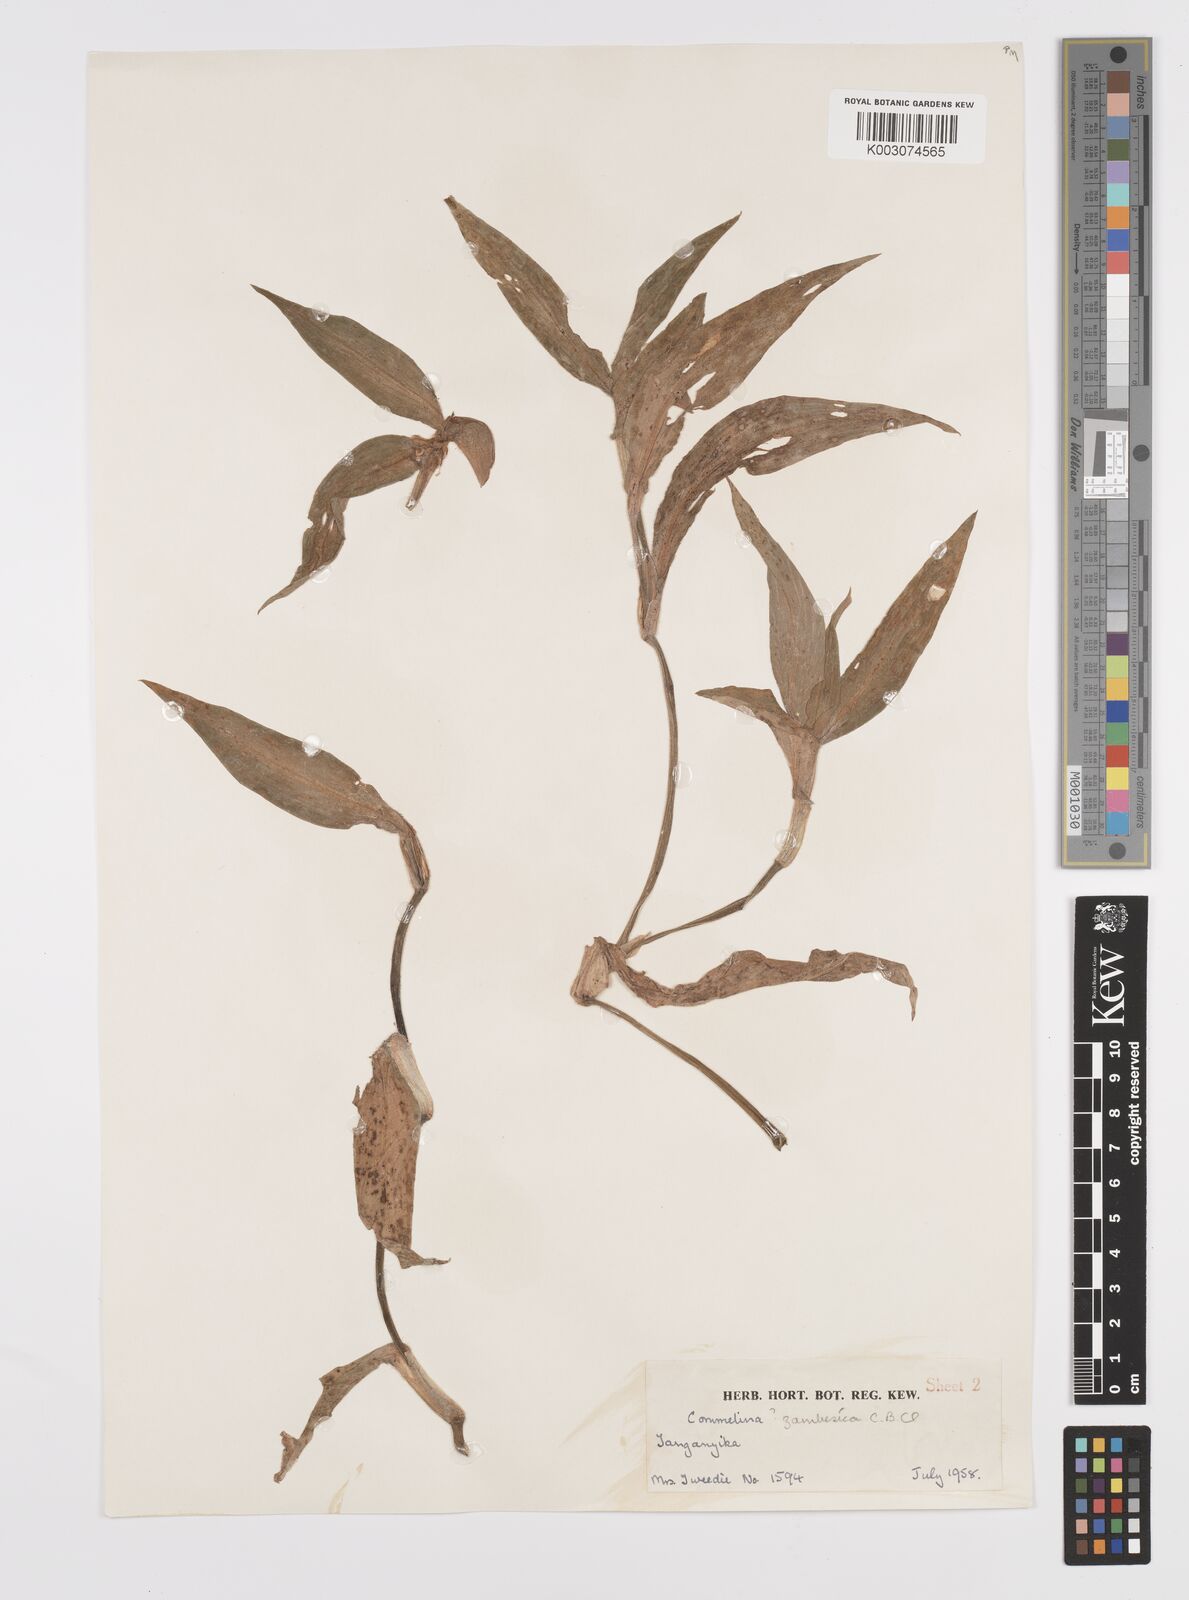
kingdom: Plantae
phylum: Tracheophyta
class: Liliopsida
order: Commelinales
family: Commelinaceae
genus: Commelina
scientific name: Commelina zambesica
